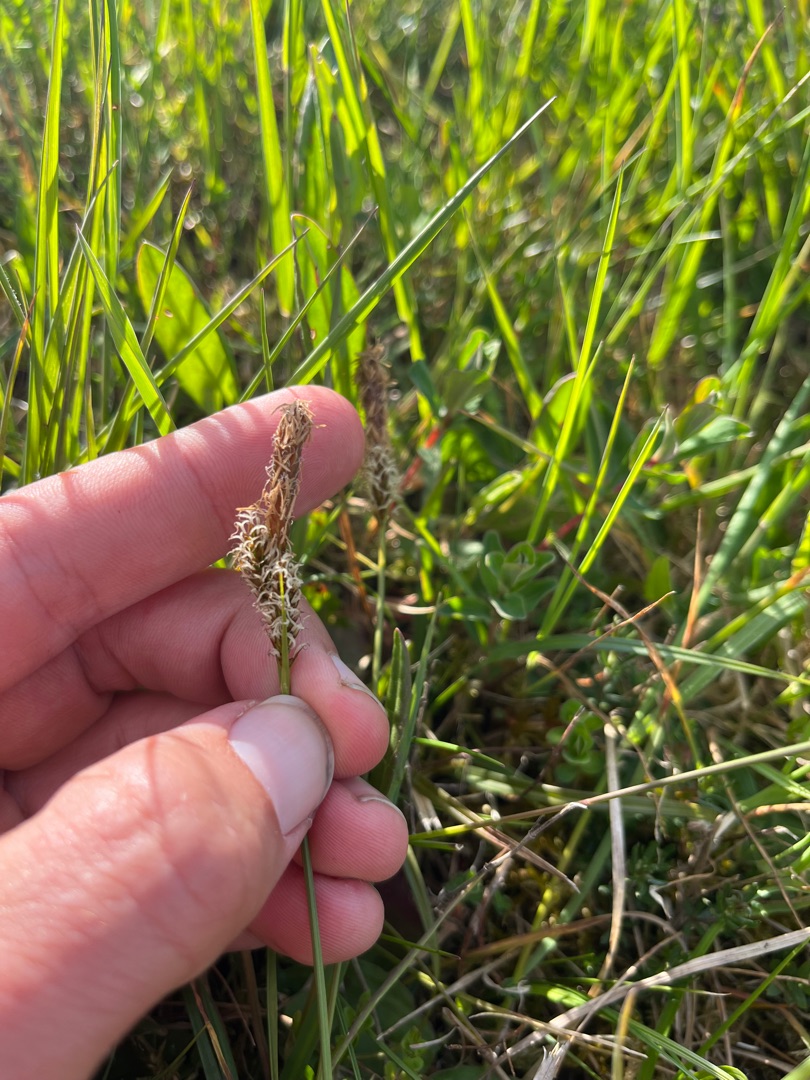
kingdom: Plantae
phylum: Tracheophyta
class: Liliopsida
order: Poales
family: Cyperaceae
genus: Carex
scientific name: Carex caryophyllea
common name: Vår-star
